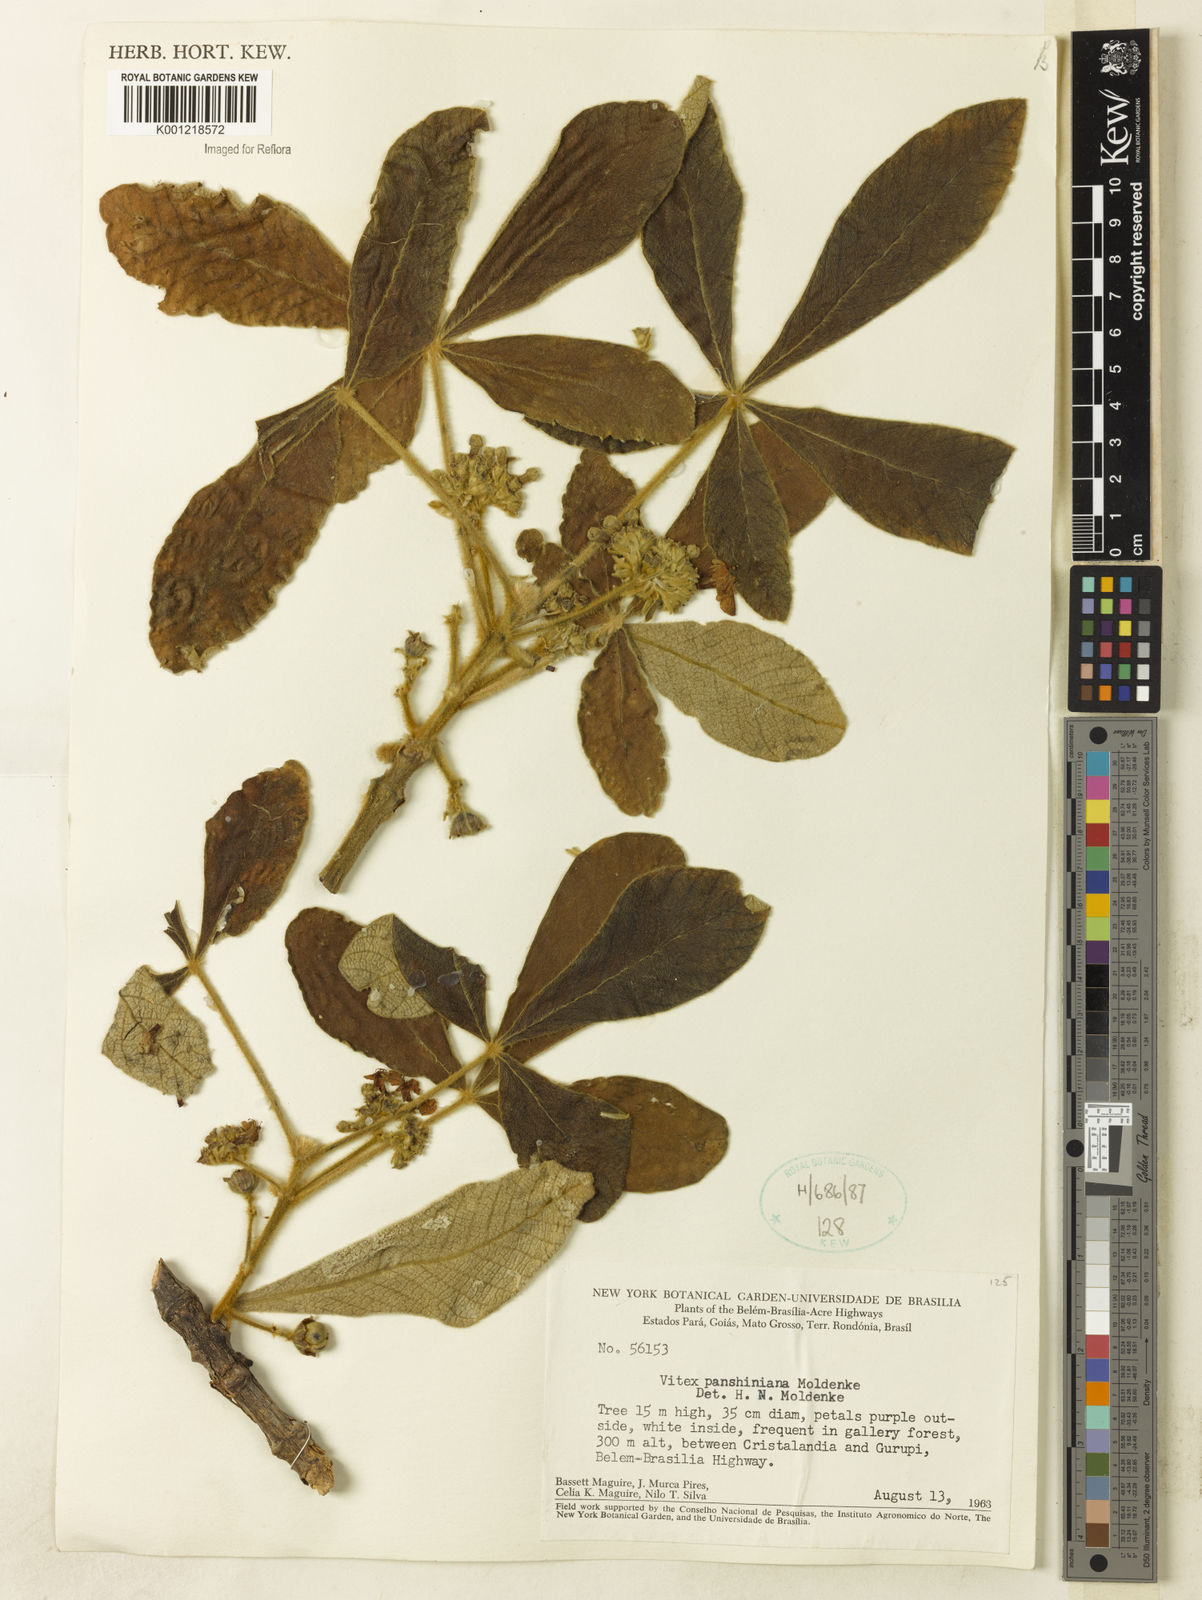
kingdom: Plantae
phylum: Tracheophyta
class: Magnoliopsida
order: Lamiales
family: Lamiaceae
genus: Vitex
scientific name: Vitex panshiniana
